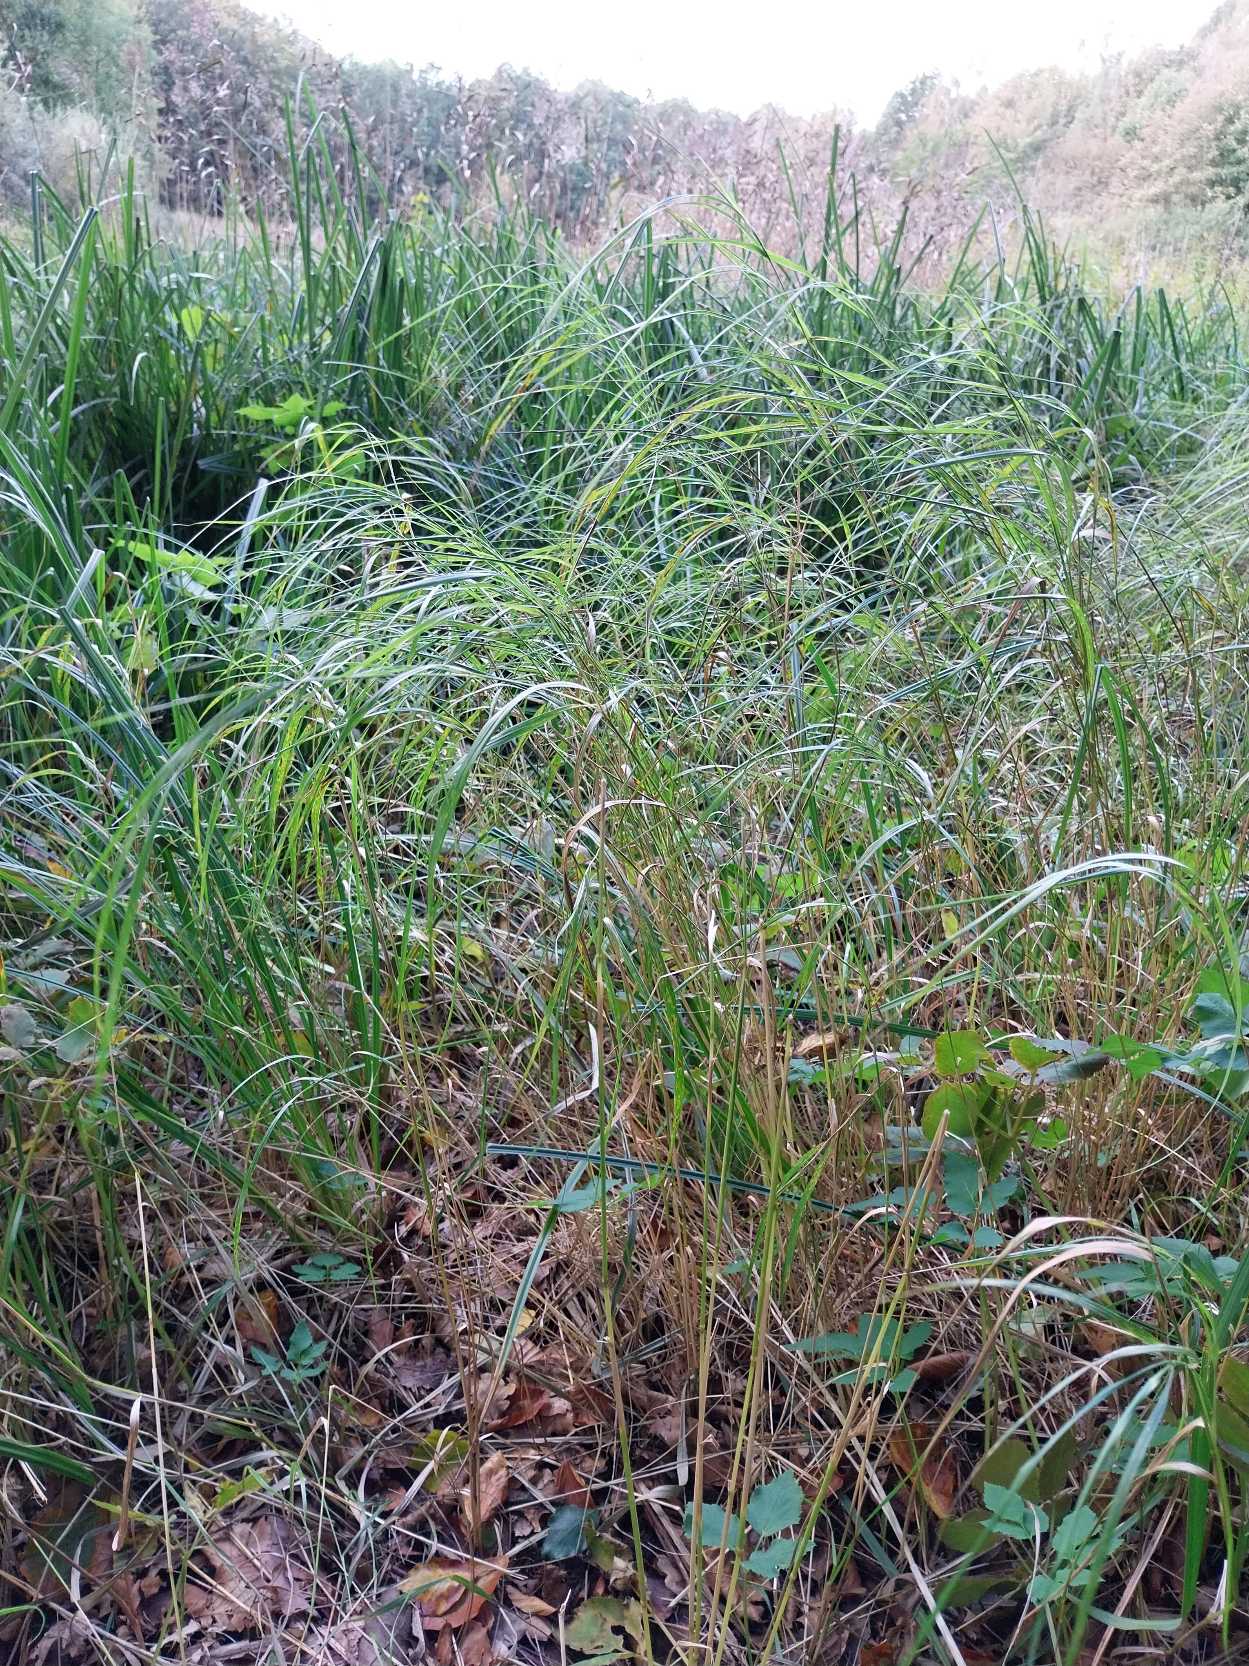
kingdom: Plantae
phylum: Tracheophyta
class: Liliopsida
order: Poales
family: Poaceae
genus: Calamagrostis
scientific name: Calamagrostis canescens
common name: Eng-rørhvene
